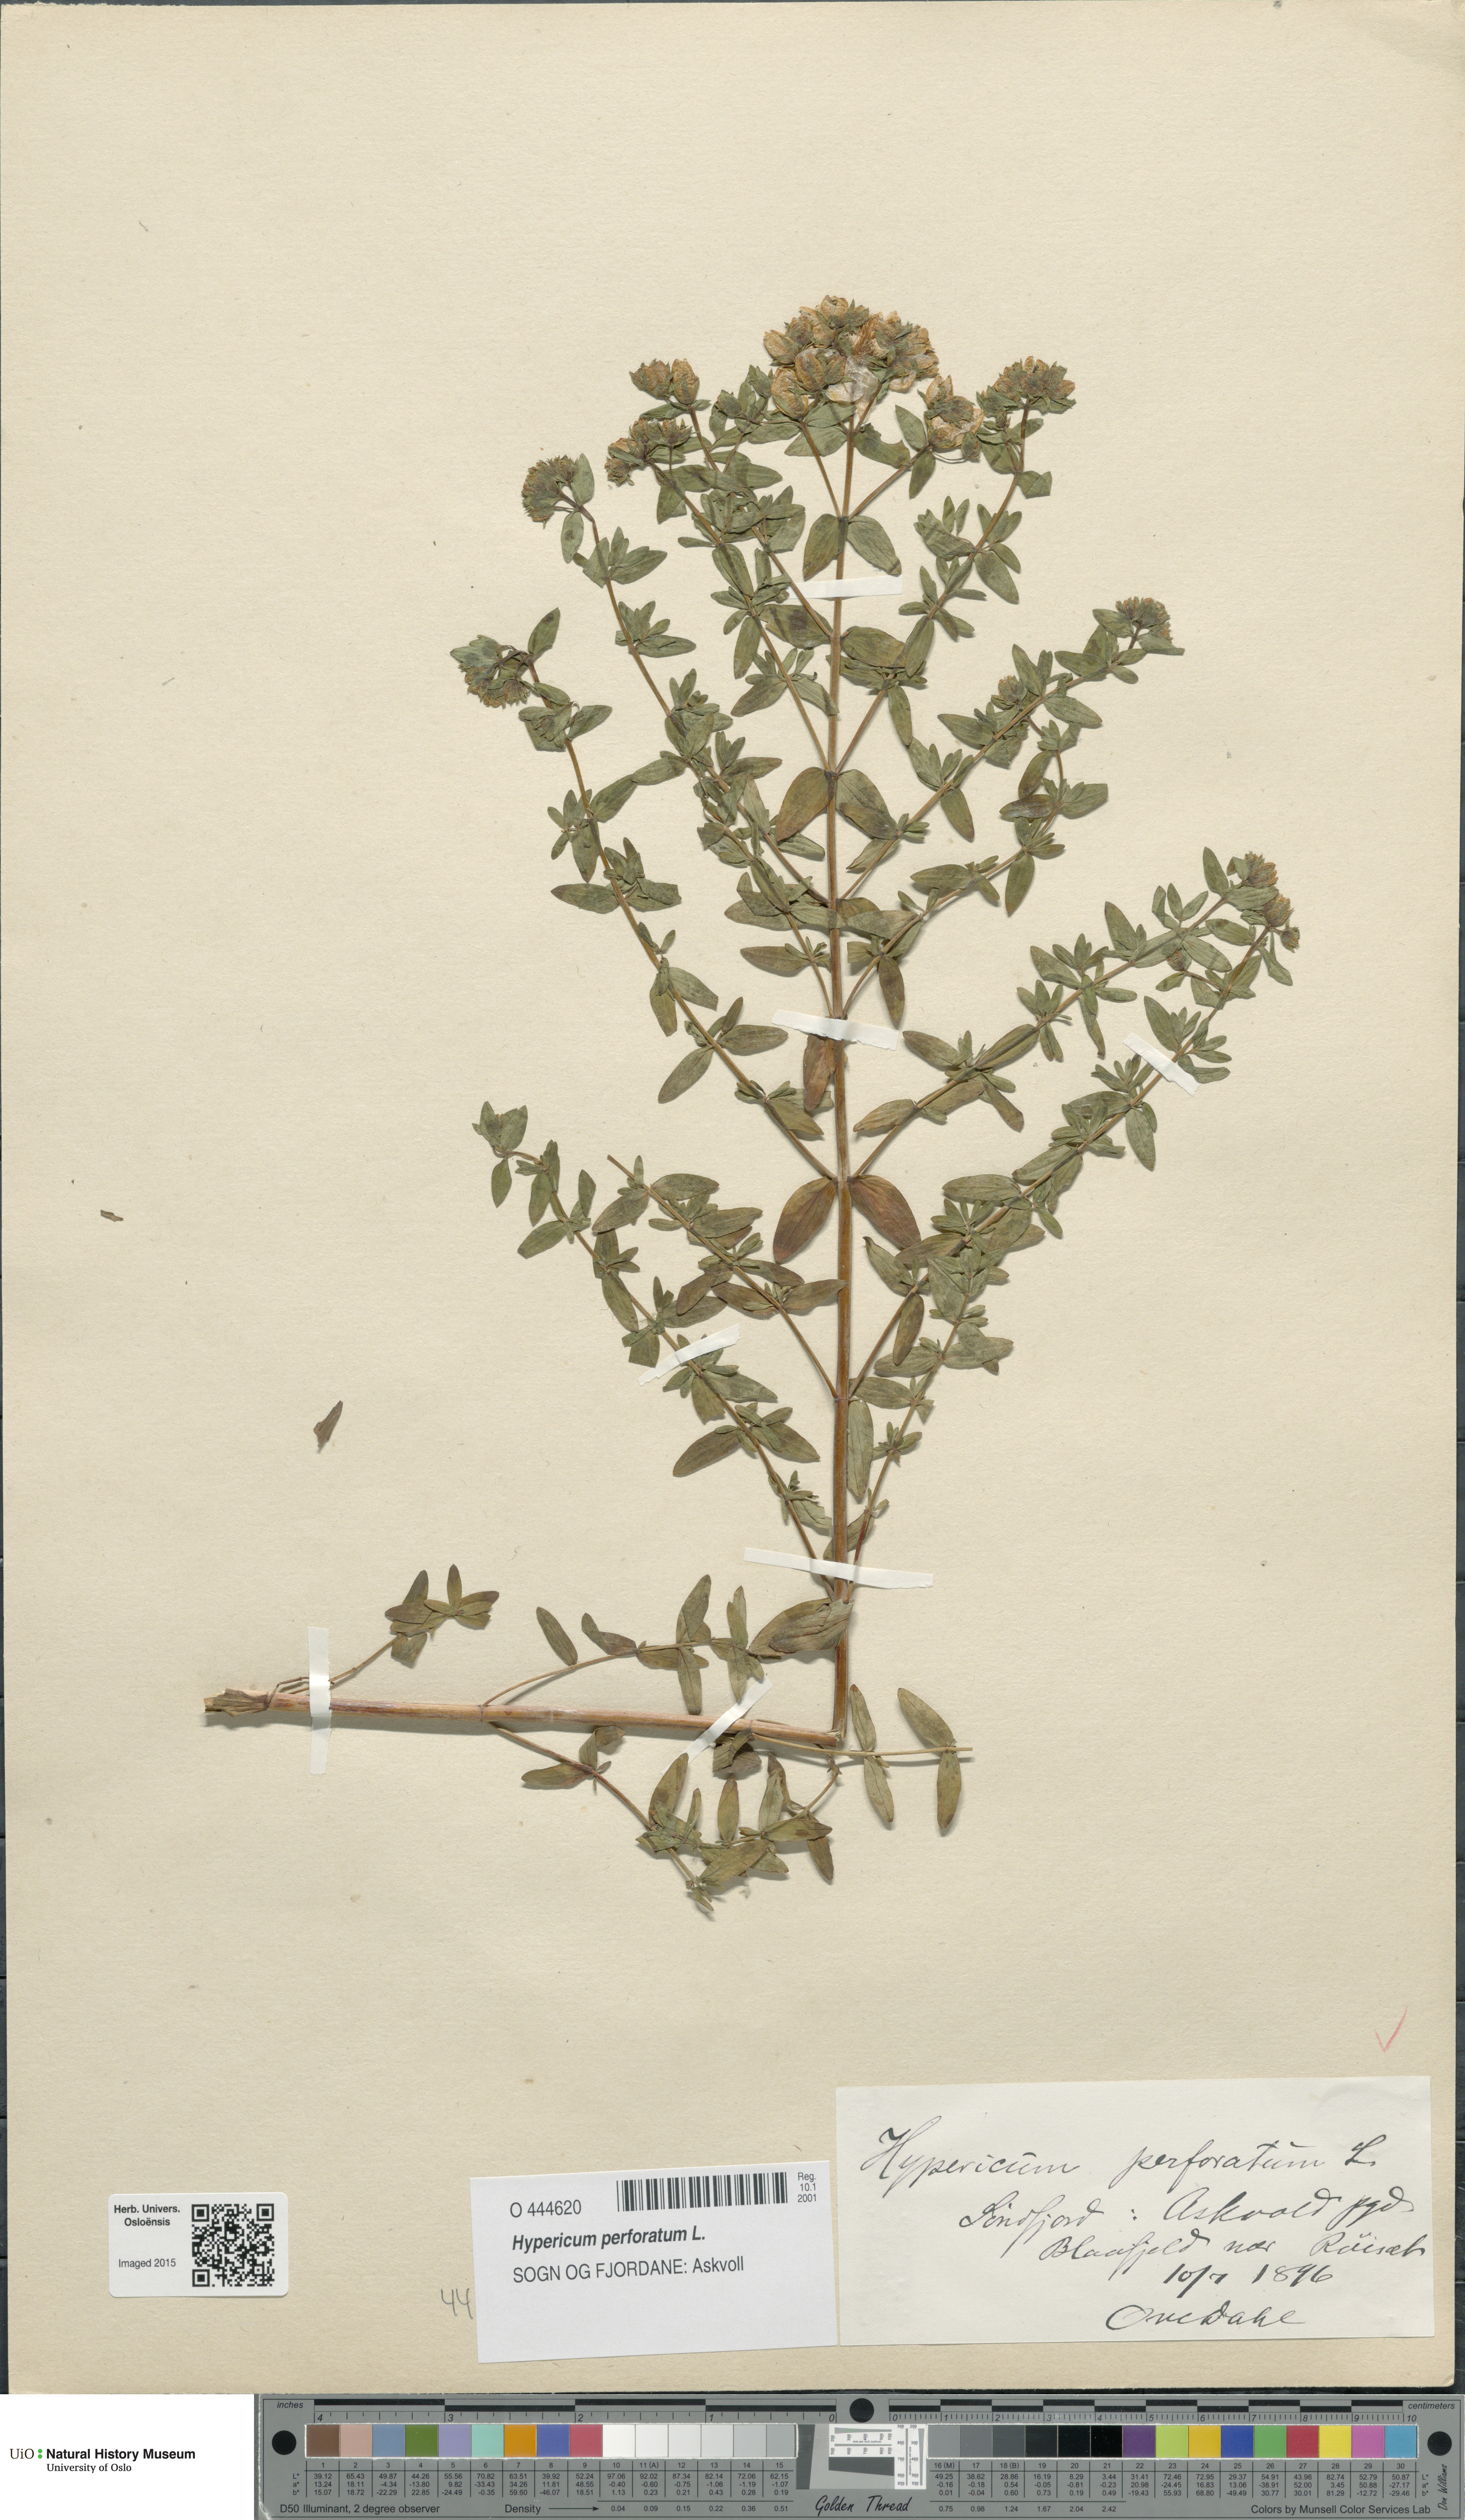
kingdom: Plantae
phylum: Tracheophyta
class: Magnoliopsida
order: Malpighiales
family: Hypericaceae
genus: Hypericum
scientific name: Hypericum perforatum
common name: Common st. johnswort
